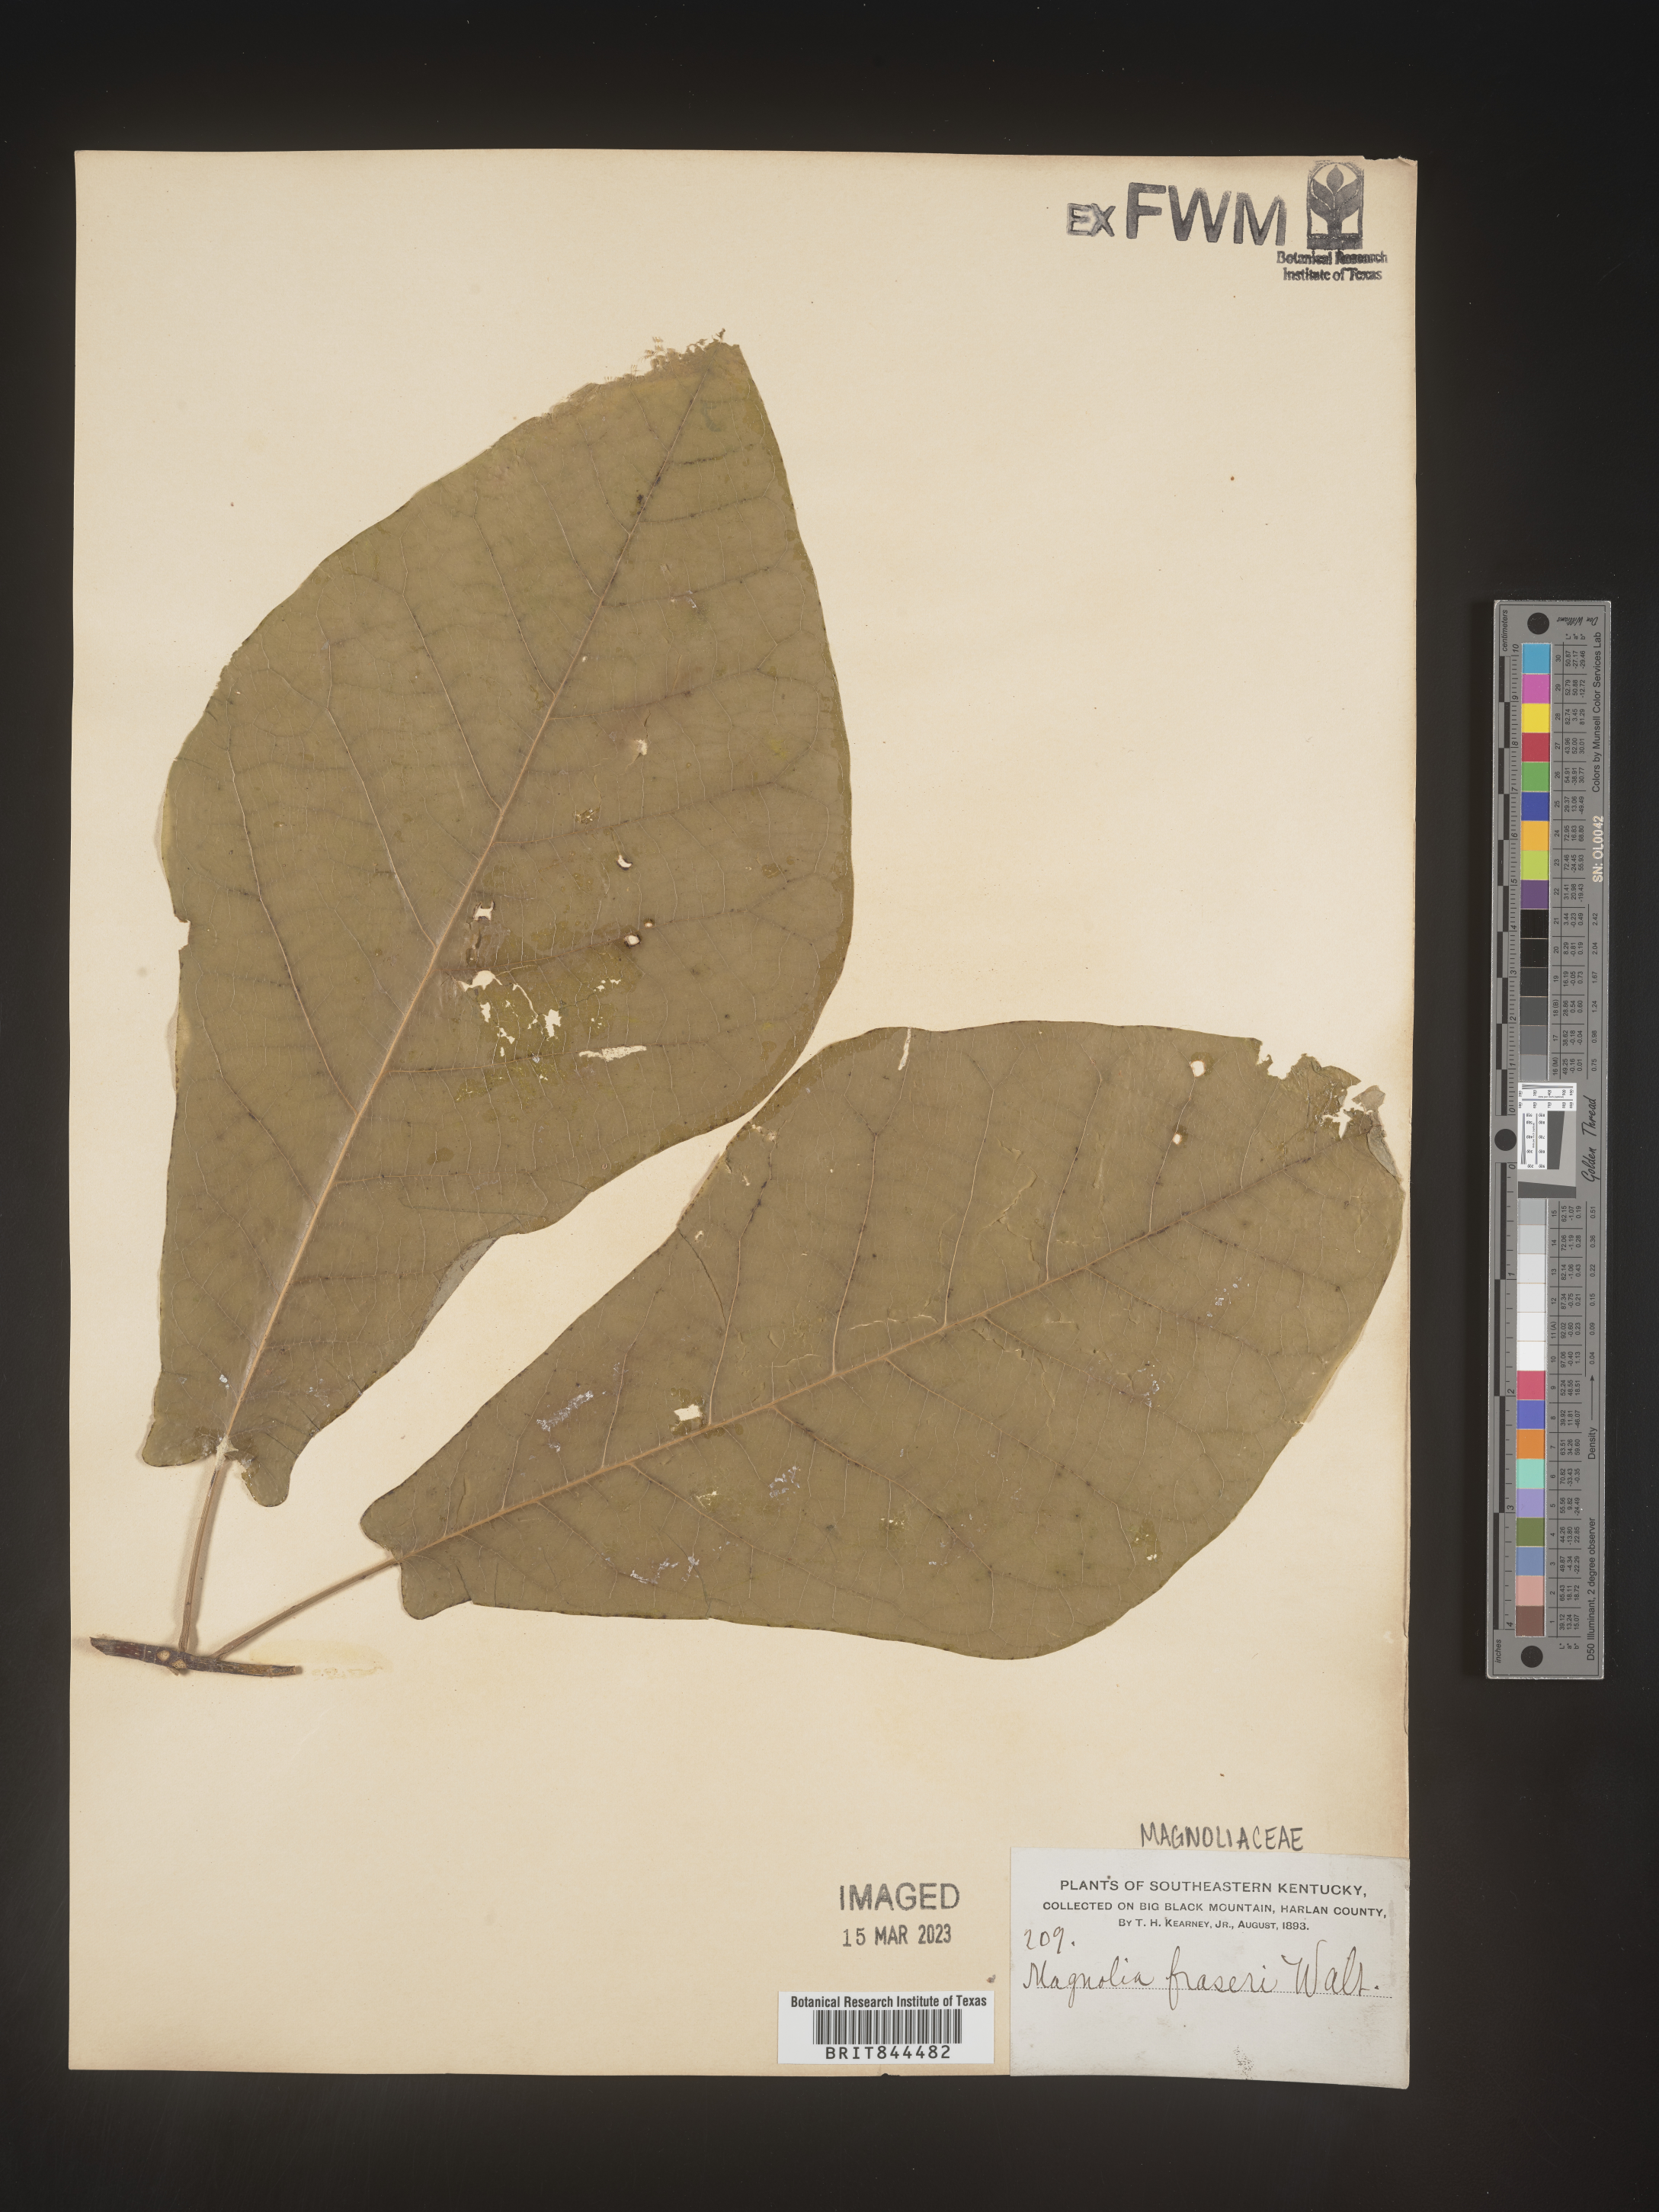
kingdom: Plantae
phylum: Tracheophyta
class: Magnoliopsida
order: Magnoliales
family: Magnoliaceae
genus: Magnolia
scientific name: Magnolia
